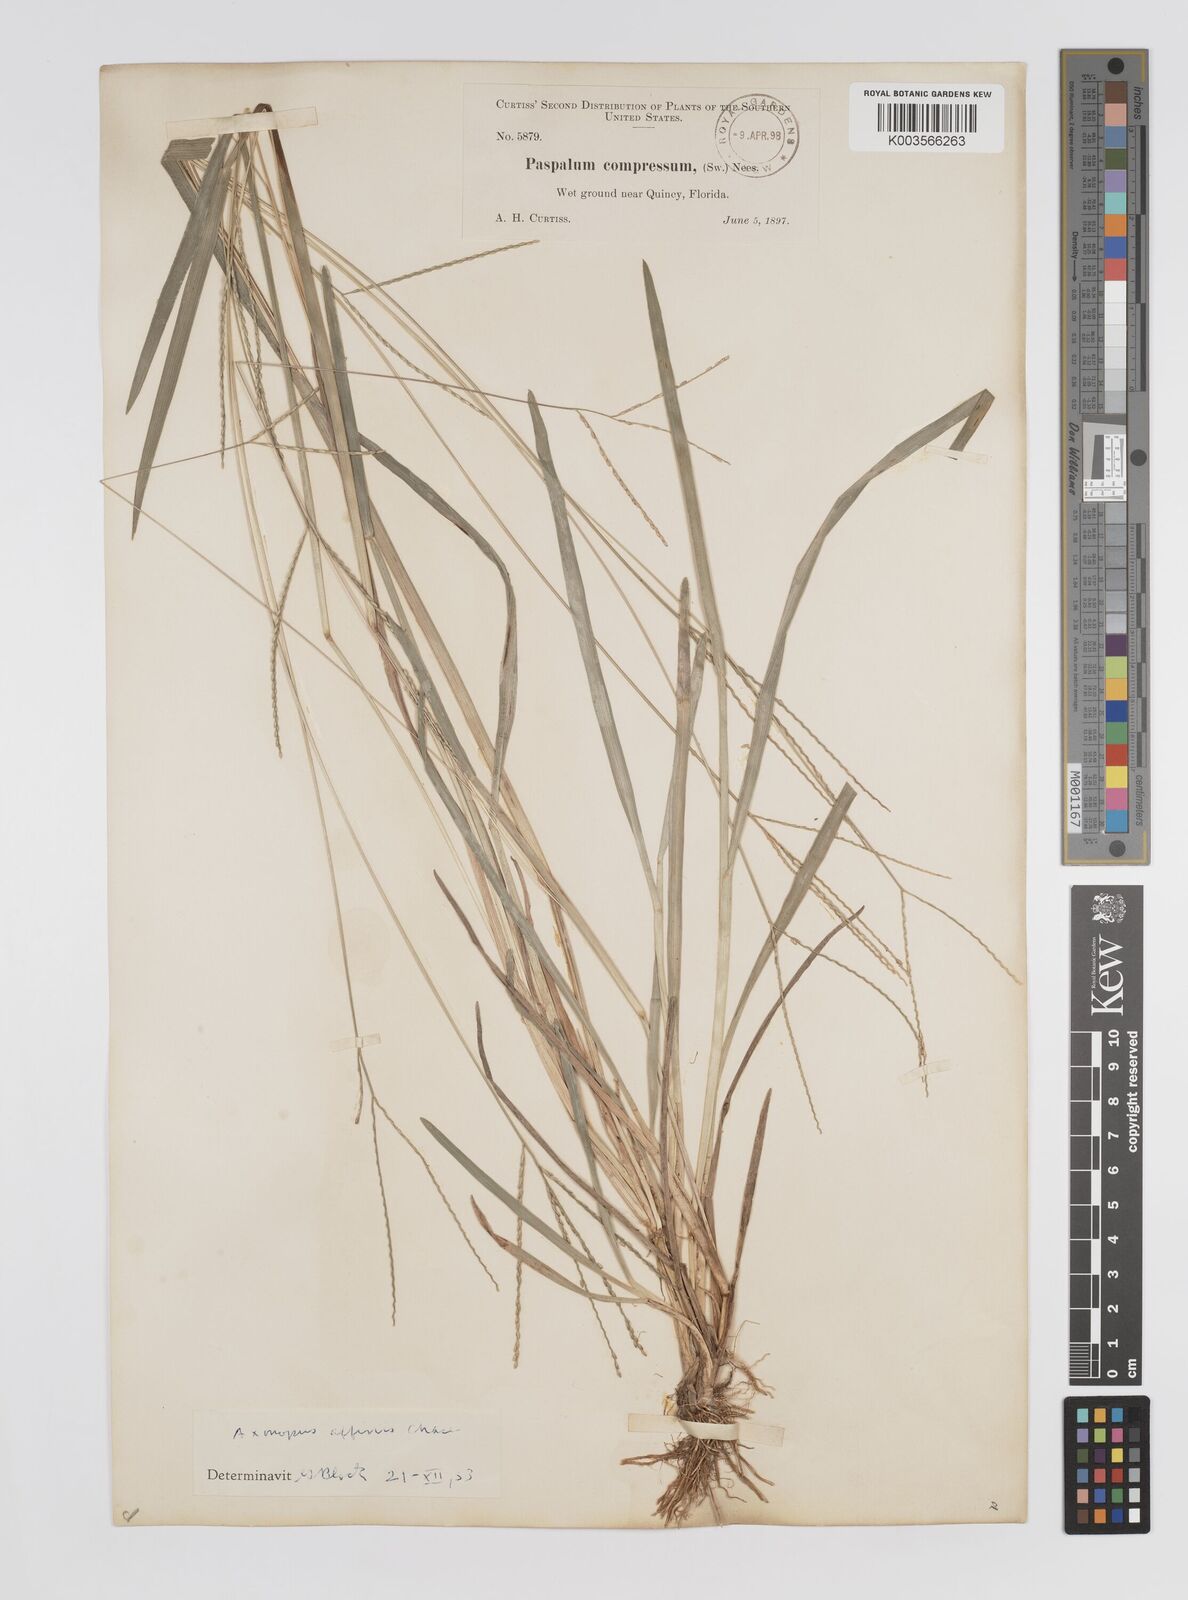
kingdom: Plantae
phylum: Tracheophyta
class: Liliopsida
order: Poales
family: Poaceae
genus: Axonopus
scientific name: Axonopus fissifolius
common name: Common carpetgrass
